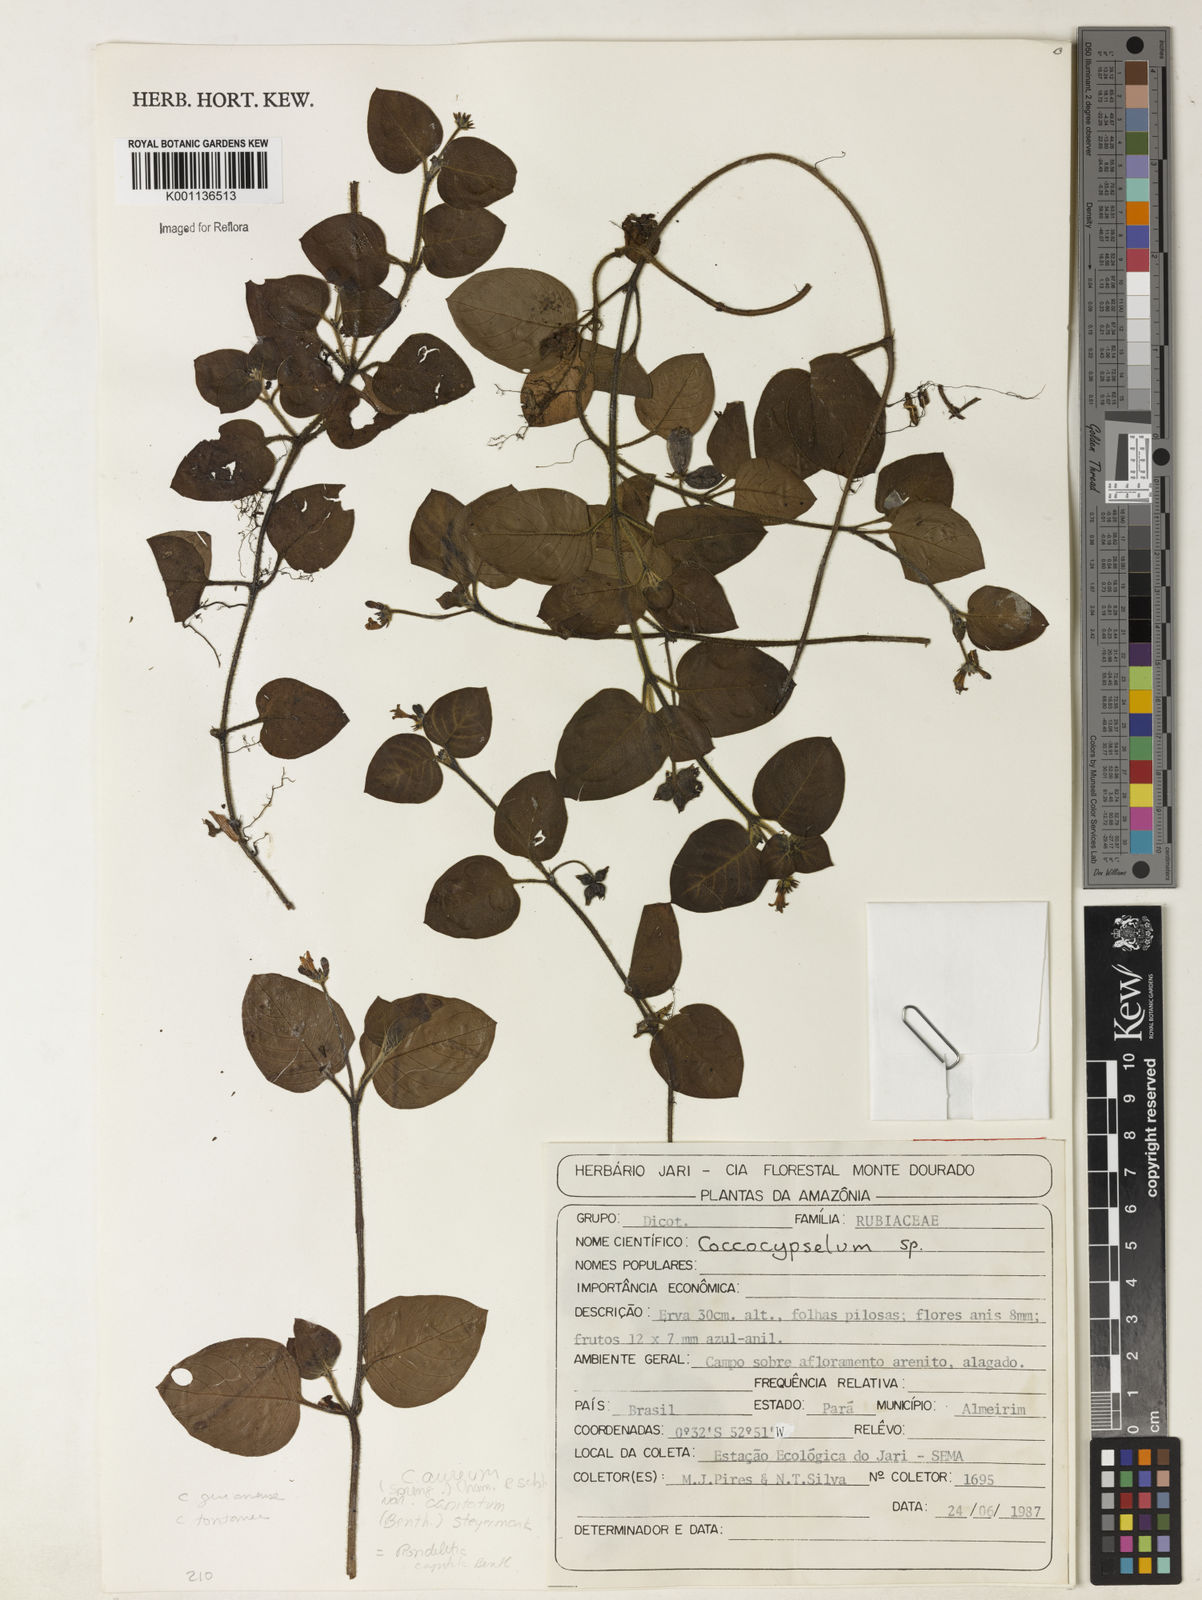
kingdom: Plantae
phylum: Tracheophyta
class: Magnoliopsida
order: Gentianales
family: Rubiaceae
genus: Coccocypselum
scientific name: Coccocypselum guianense
